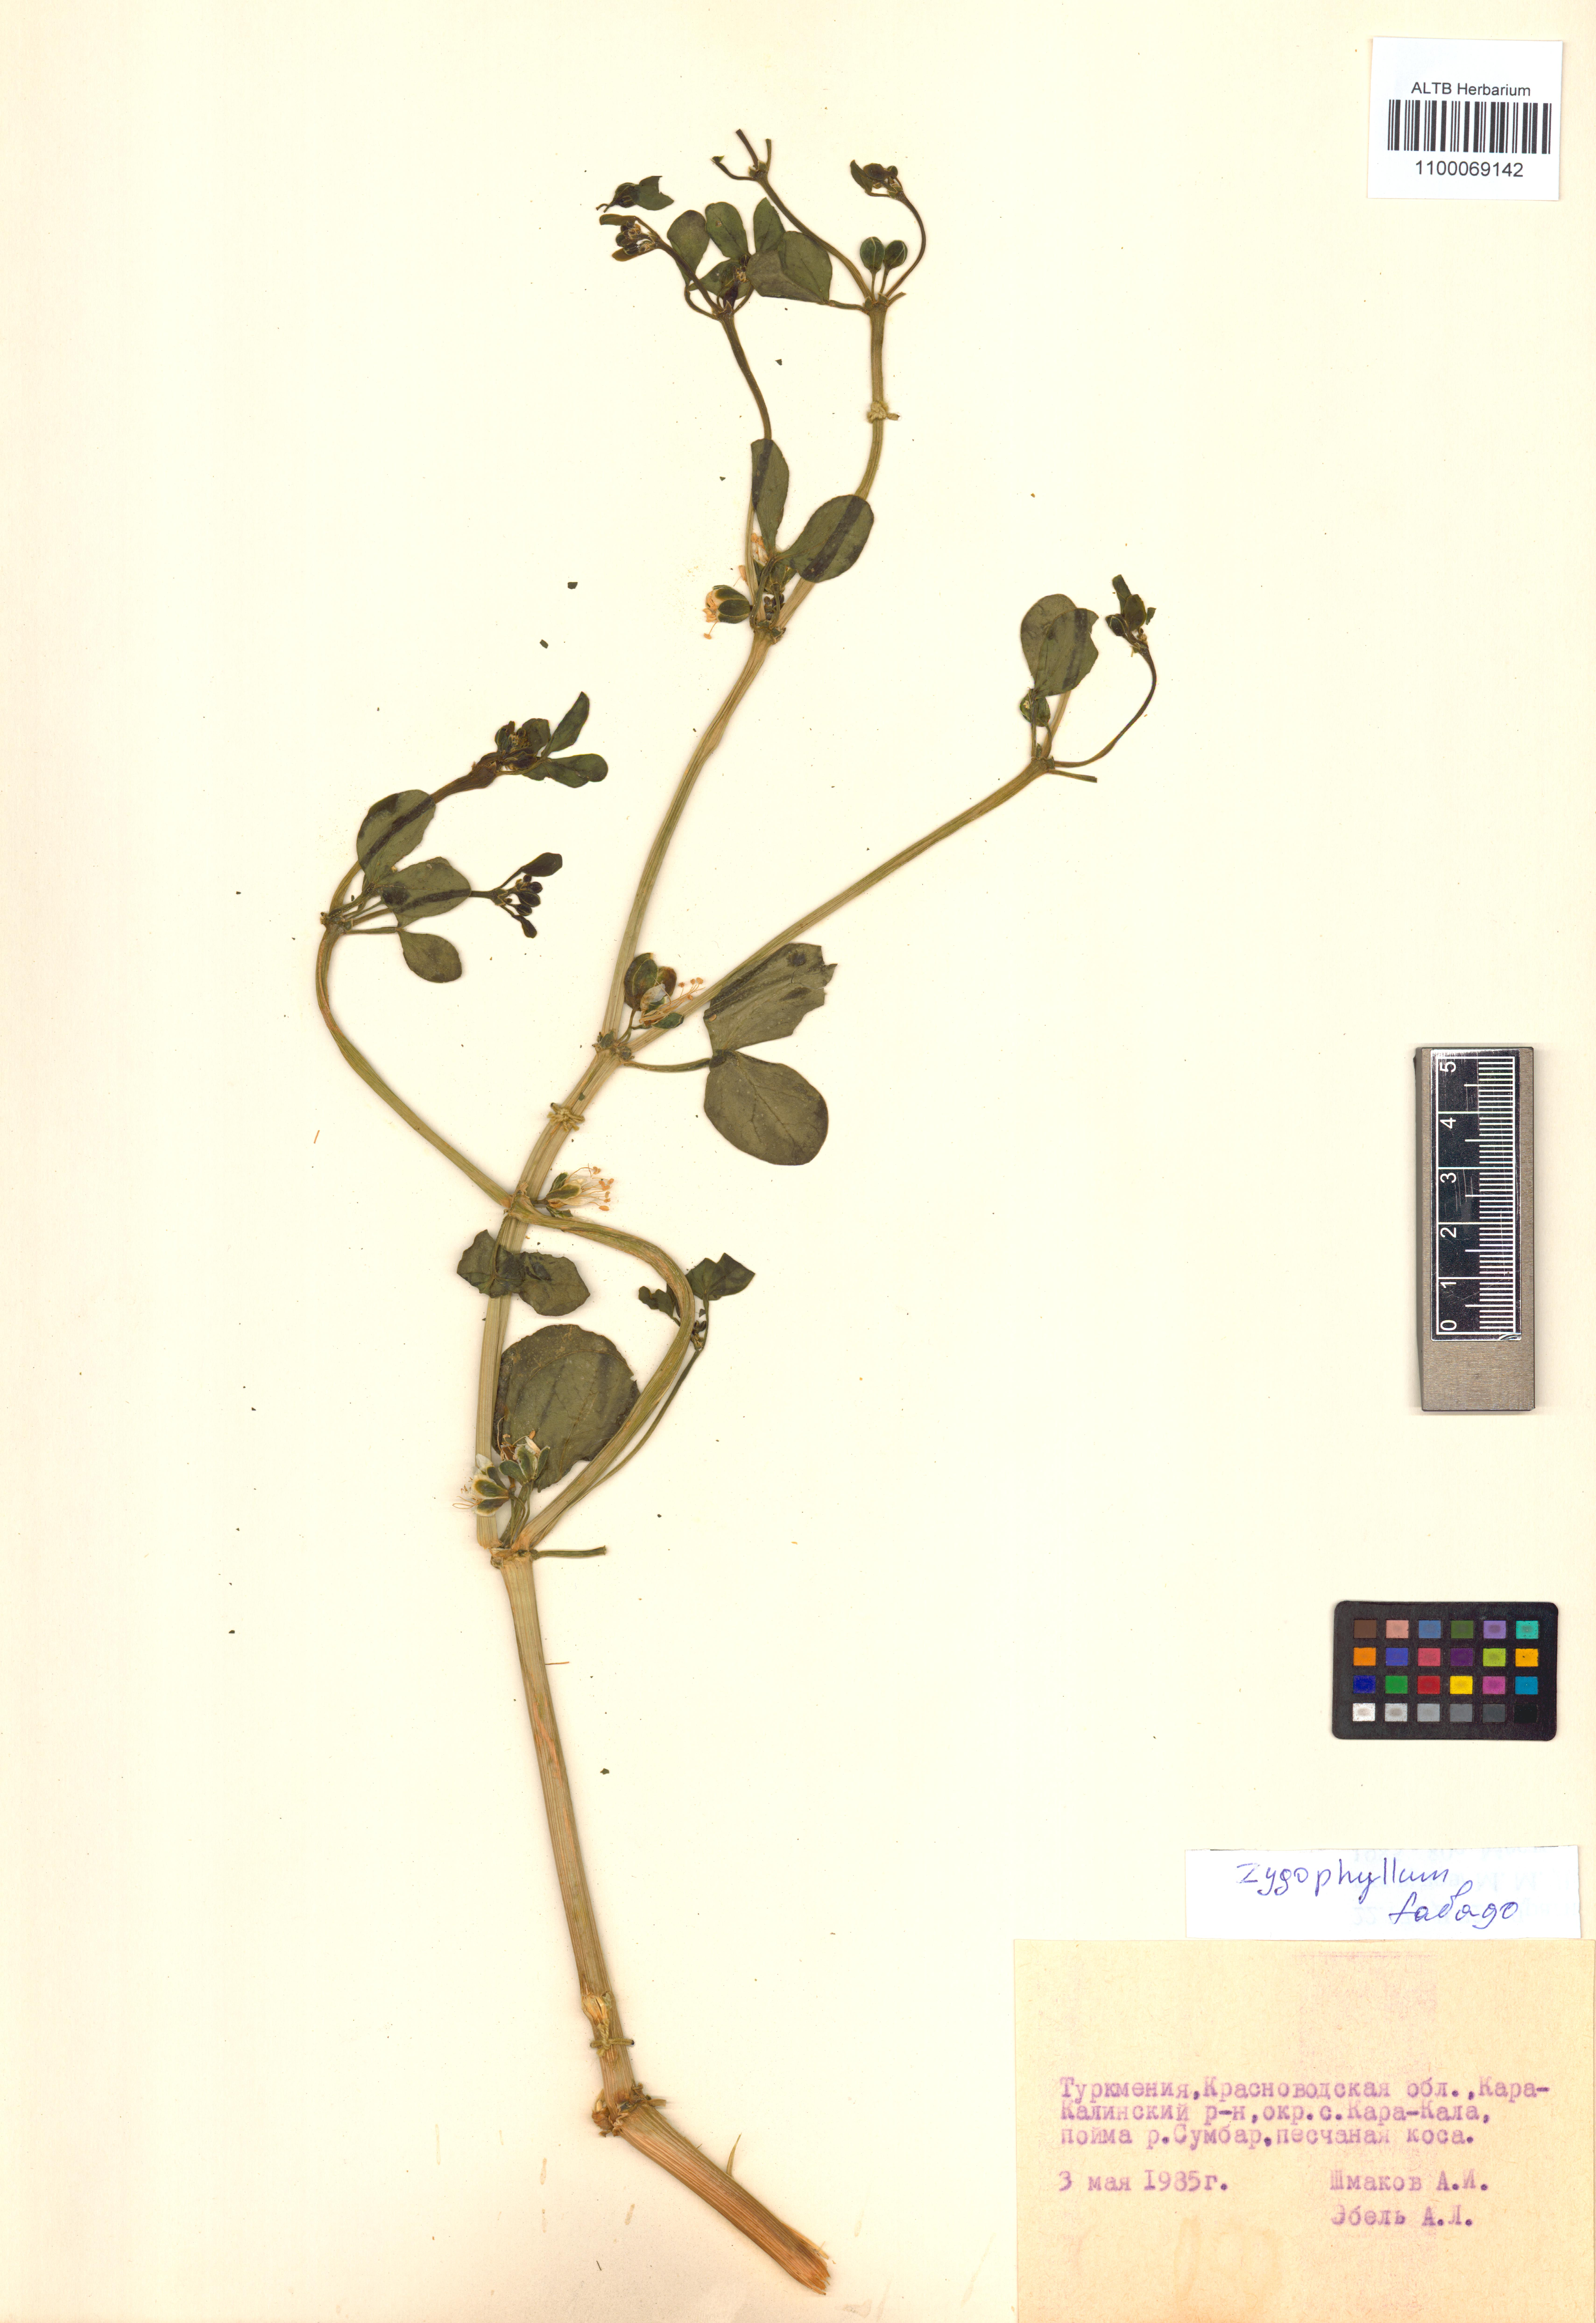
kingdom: Plantae
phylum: Tracheophyta
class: Magnoliopsida
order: Zygophyllales
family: Zygophyllaceae
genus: Zygophyllum
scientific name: Zygophyllum fabago
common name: Syrian beancaper
